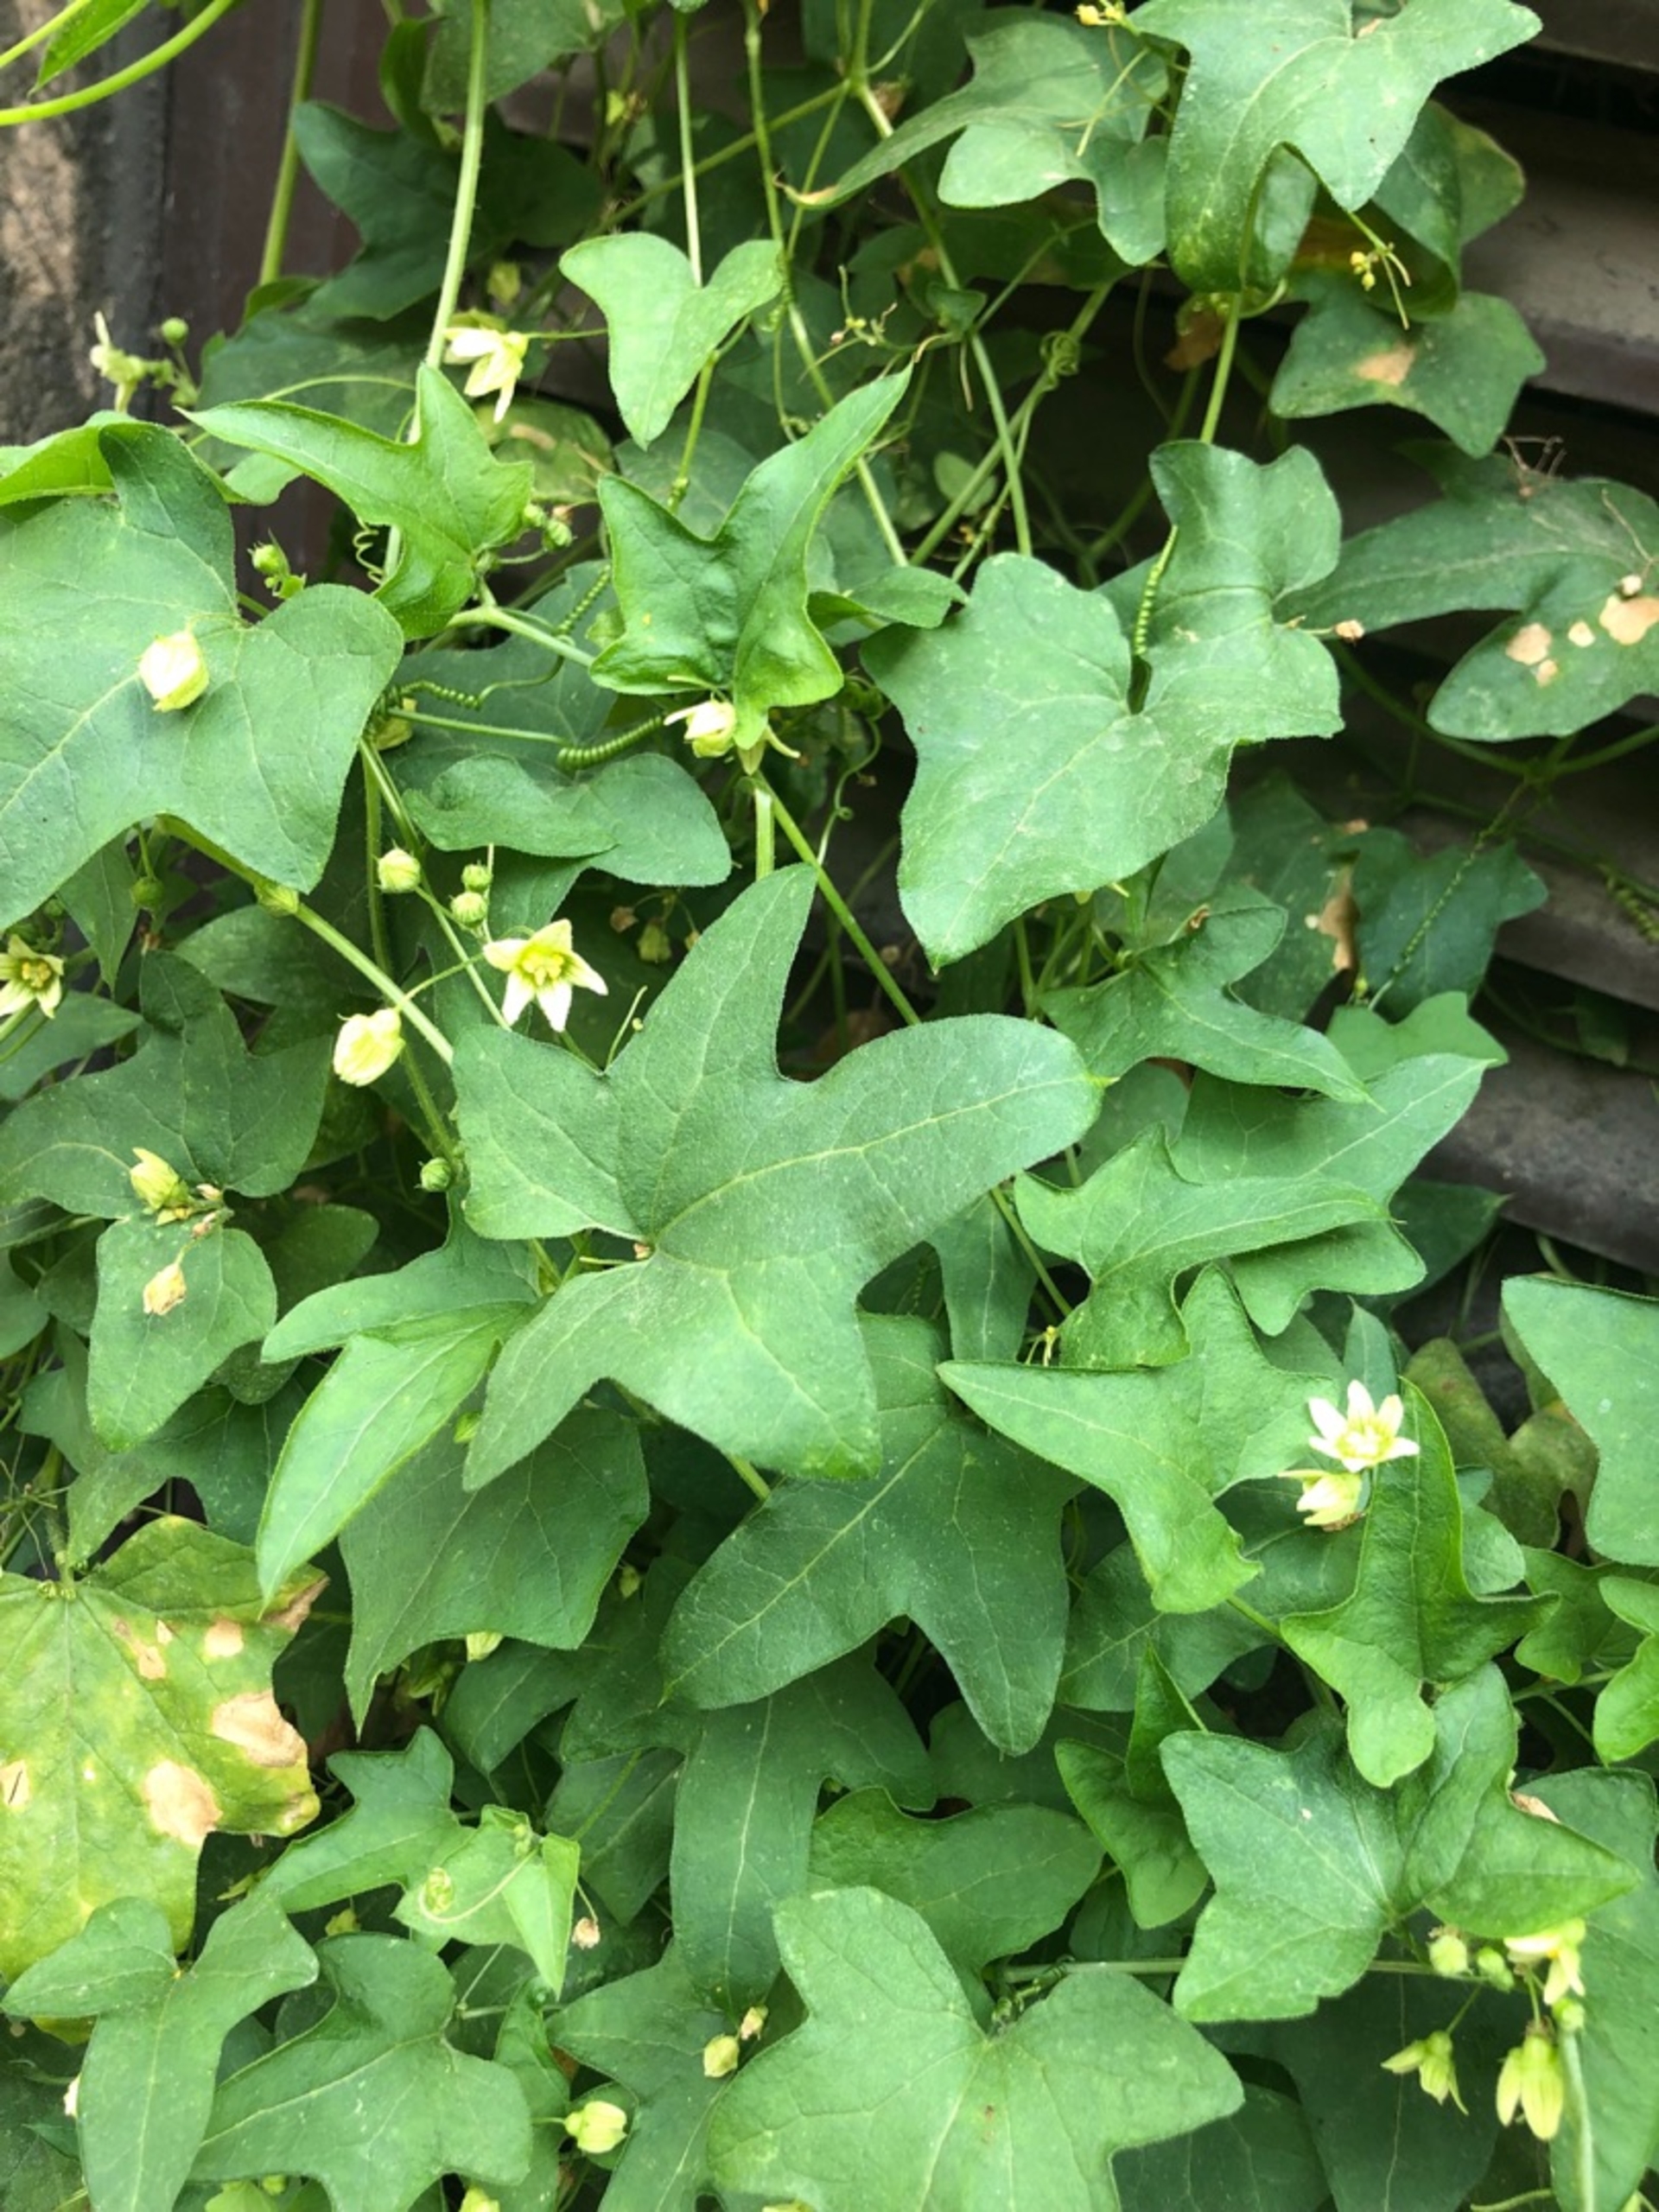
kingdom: Plantae
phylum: Tracheophyta
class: Magnoliopsida
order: Cucurbitales
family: Cucurbitaceae
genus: Bryonia
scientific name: Bryonia dioica
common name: Tvebo galdebær
